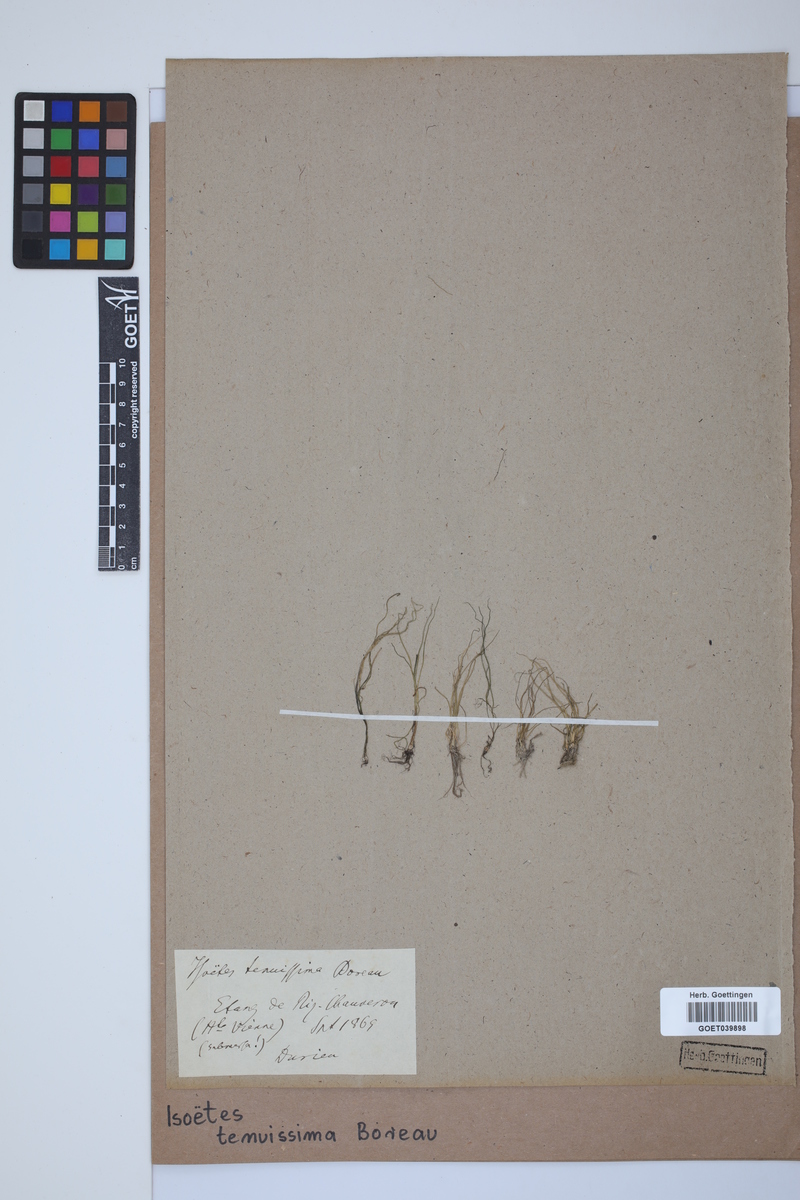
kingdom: Plantae
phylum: Tracheophyta
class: Lycopodiopsida
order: Isoetales
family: Isoetaceae
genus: Isoetes
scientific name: Isoetes muelleri
